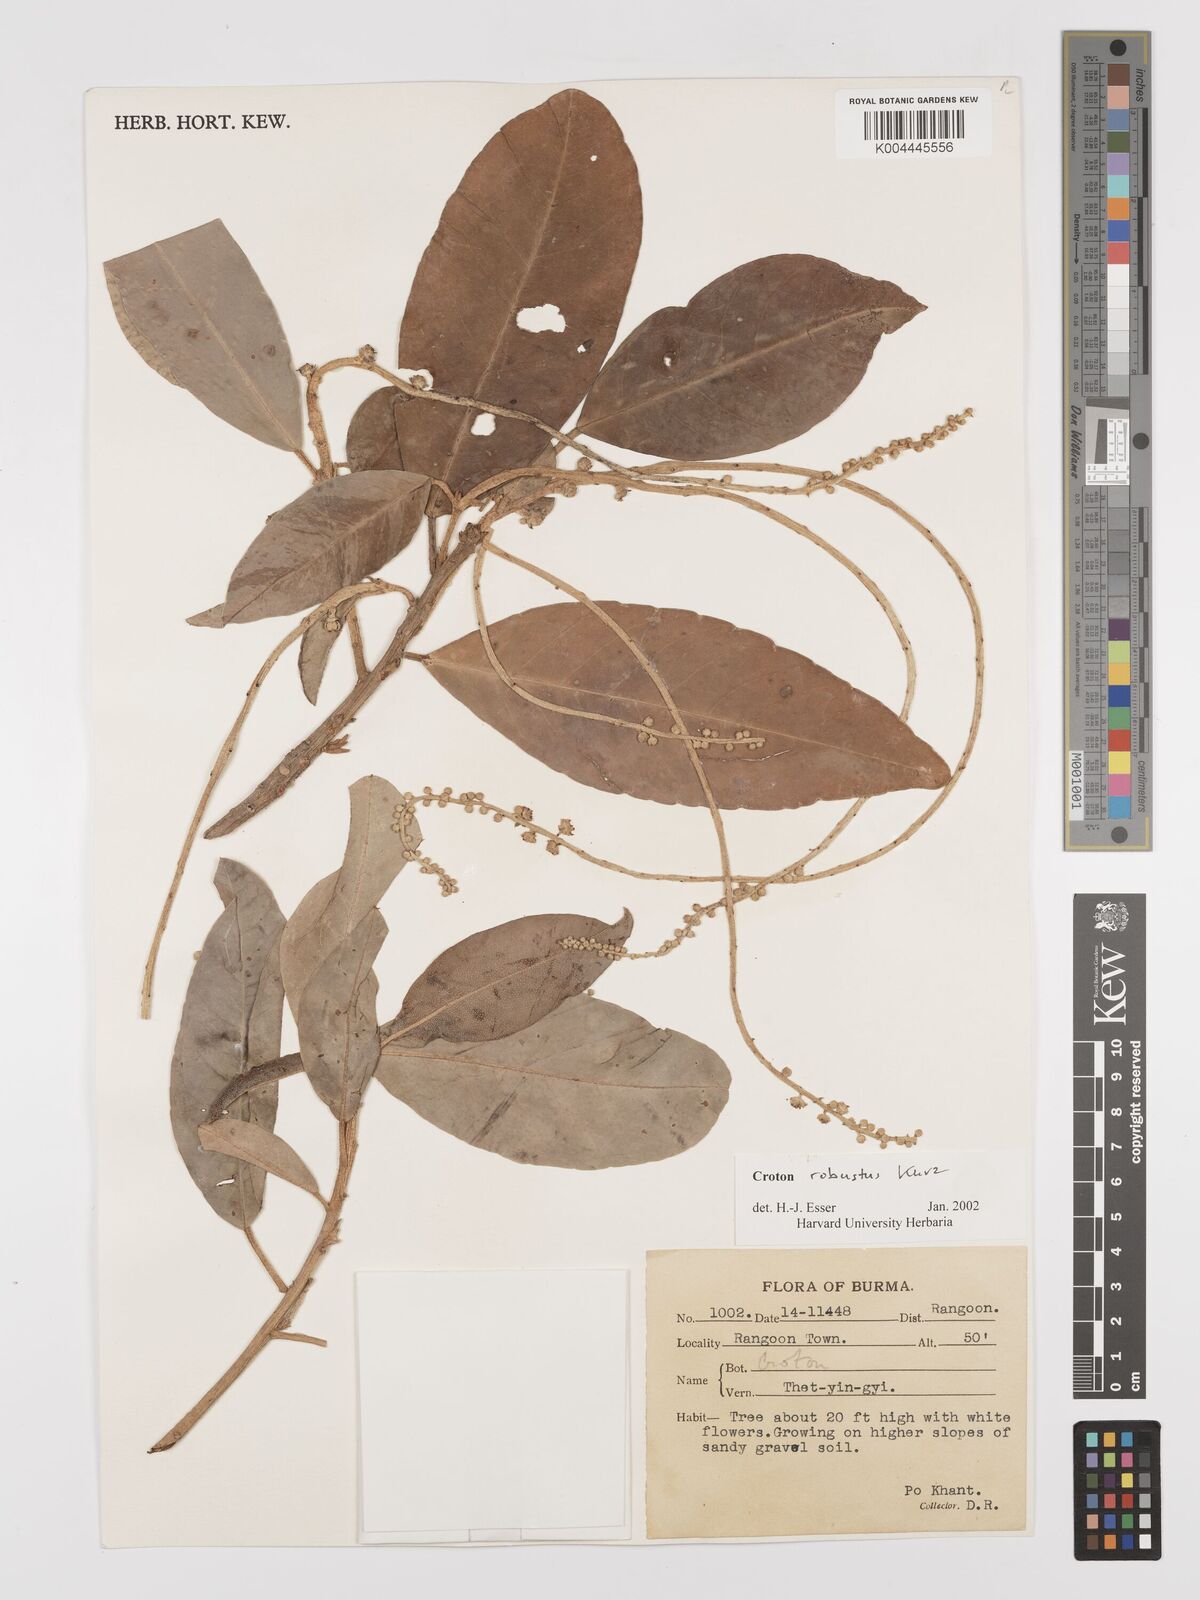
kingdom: Plantae
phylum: Tracheophyta
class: Magnoliopsida
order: Malpighiales
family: Euphorbiaceae
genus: Croton
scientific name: Croton robustus
